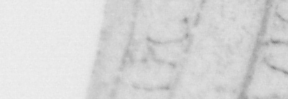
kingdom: Animalia
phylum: Chordata
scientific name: Chordata
